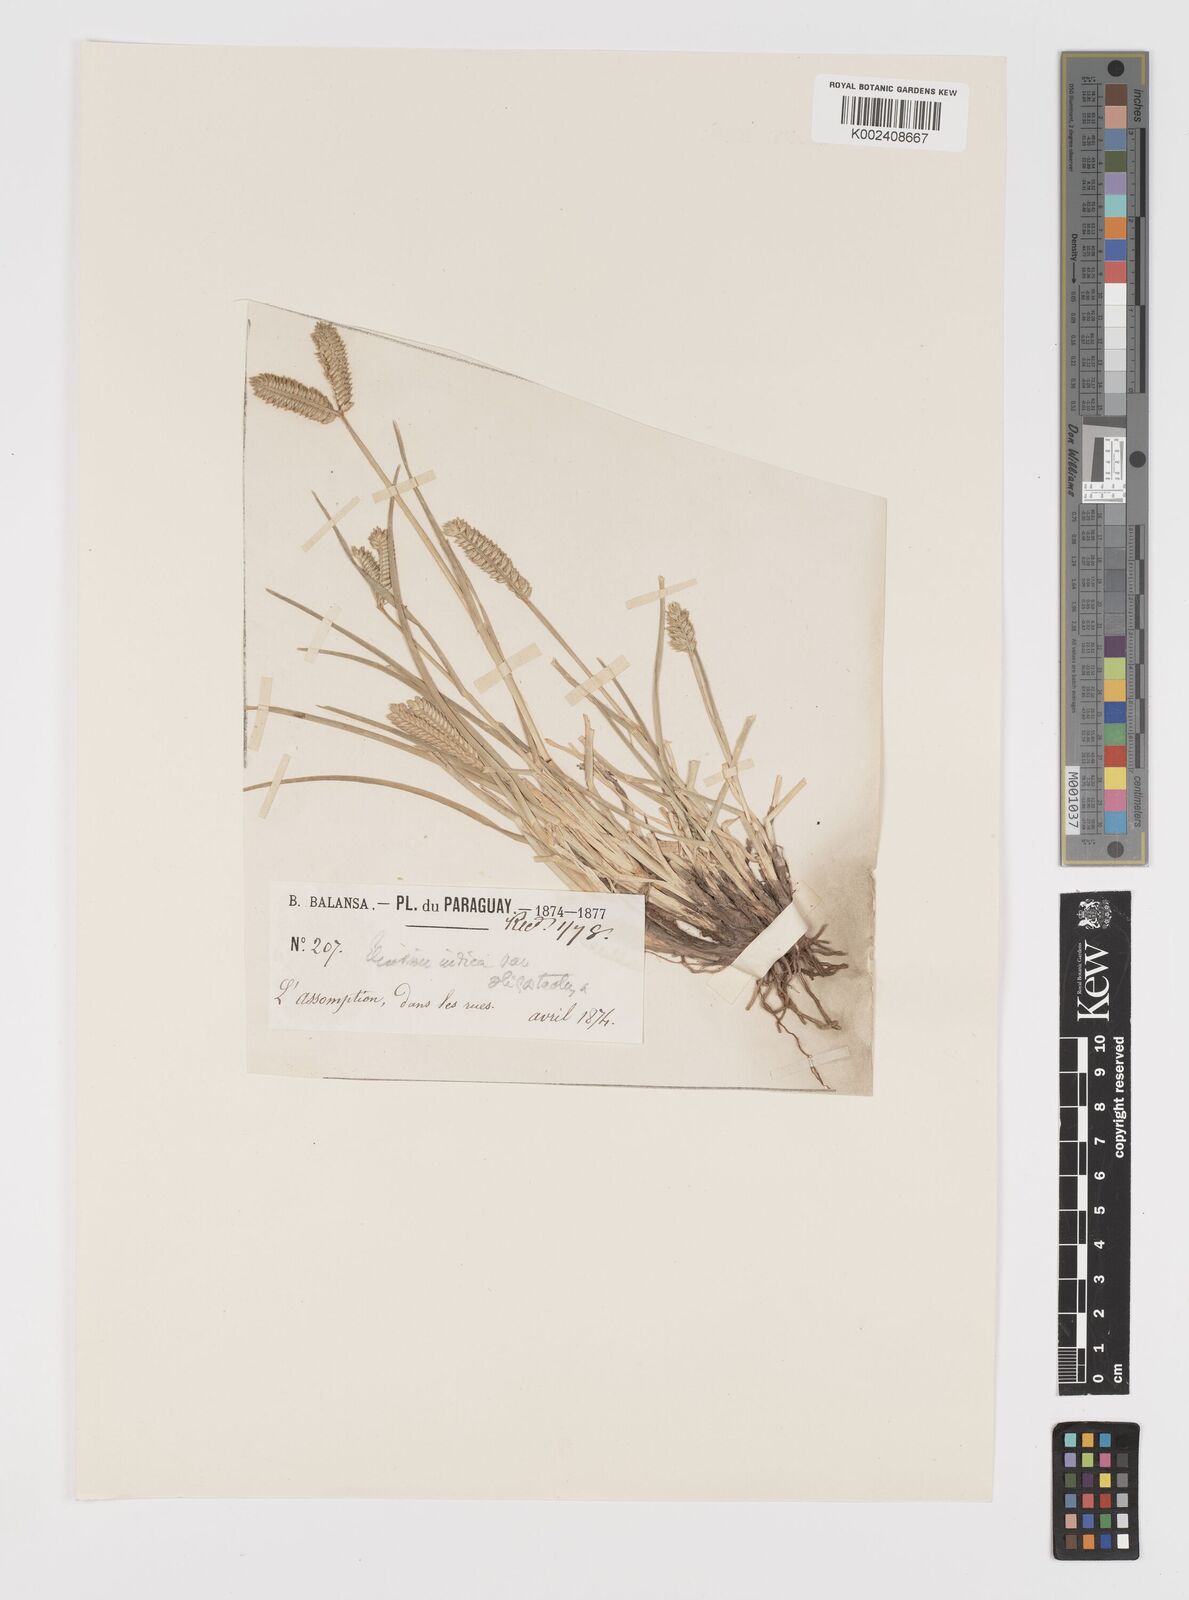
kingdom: Plantae
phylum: Tracheophyta
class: Liliopsida
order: Poales
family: Poaceae
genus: Eleusine
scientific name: Eleusine tristachya
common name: American yard-grass
